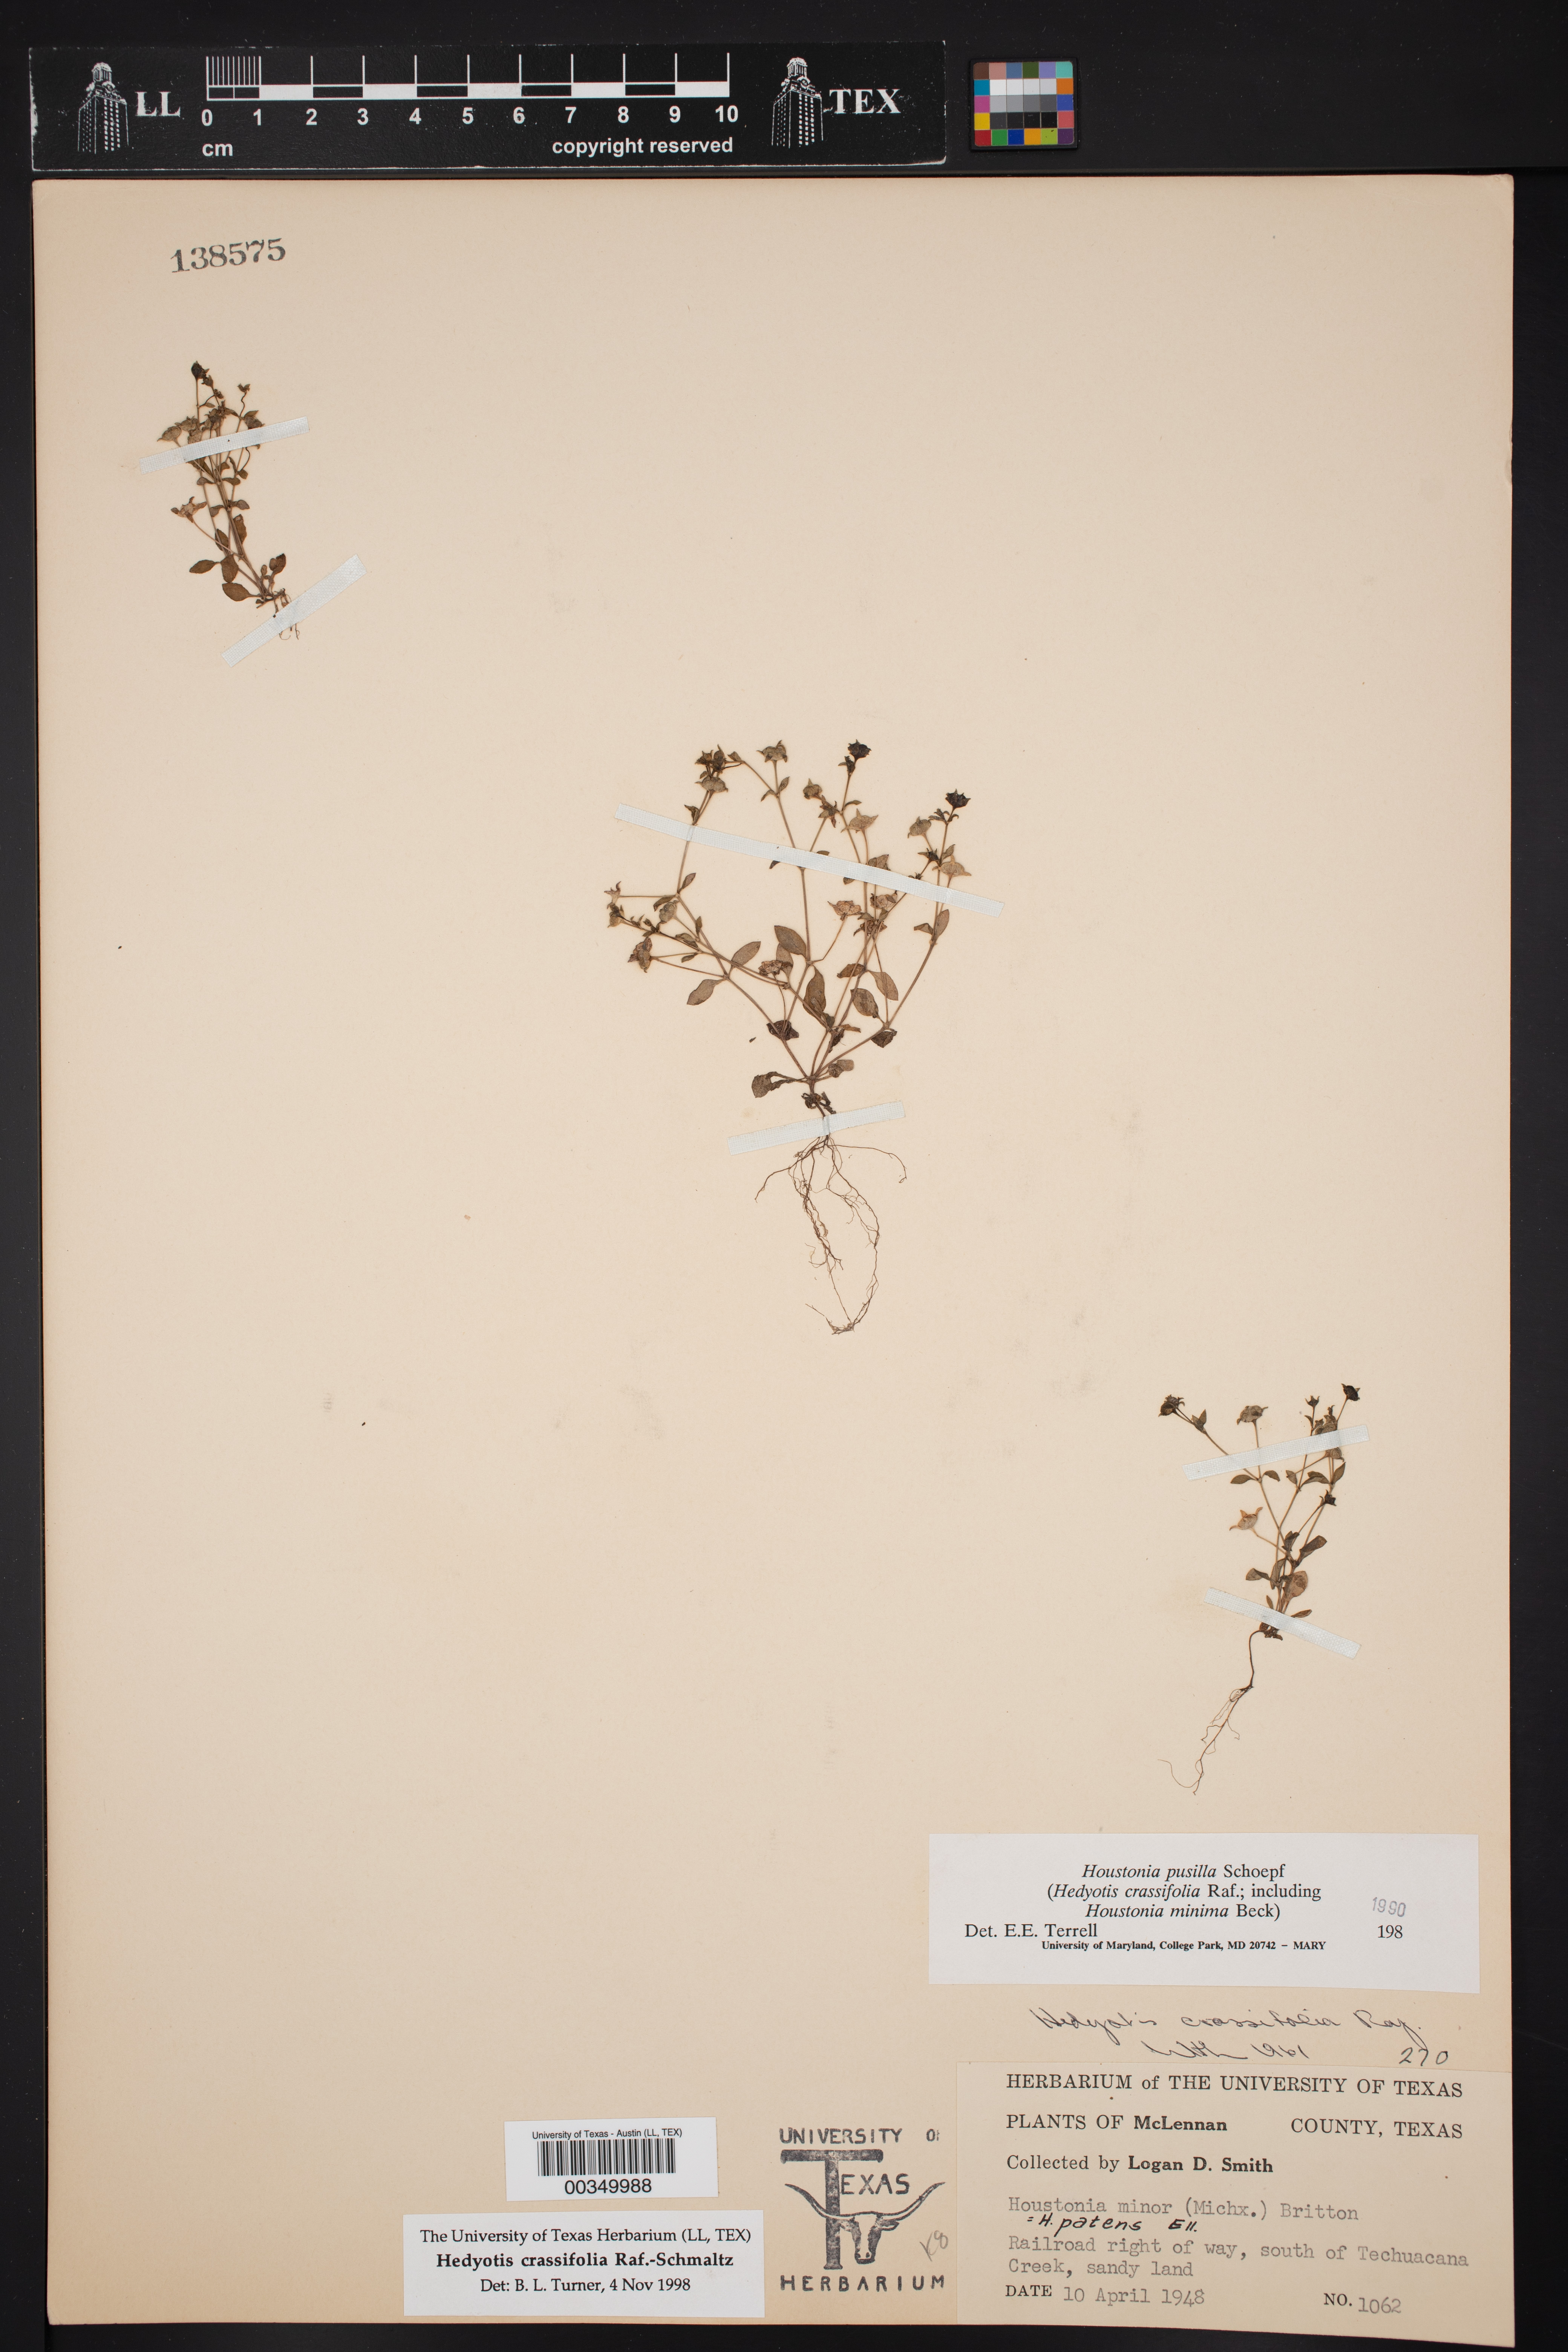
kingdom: Plantae
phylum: Tracheophyta
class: Magnoliopsida
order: Gentianales
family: Rubiaceae
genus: Hedyotis
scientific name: Hedyotis crassifolia
